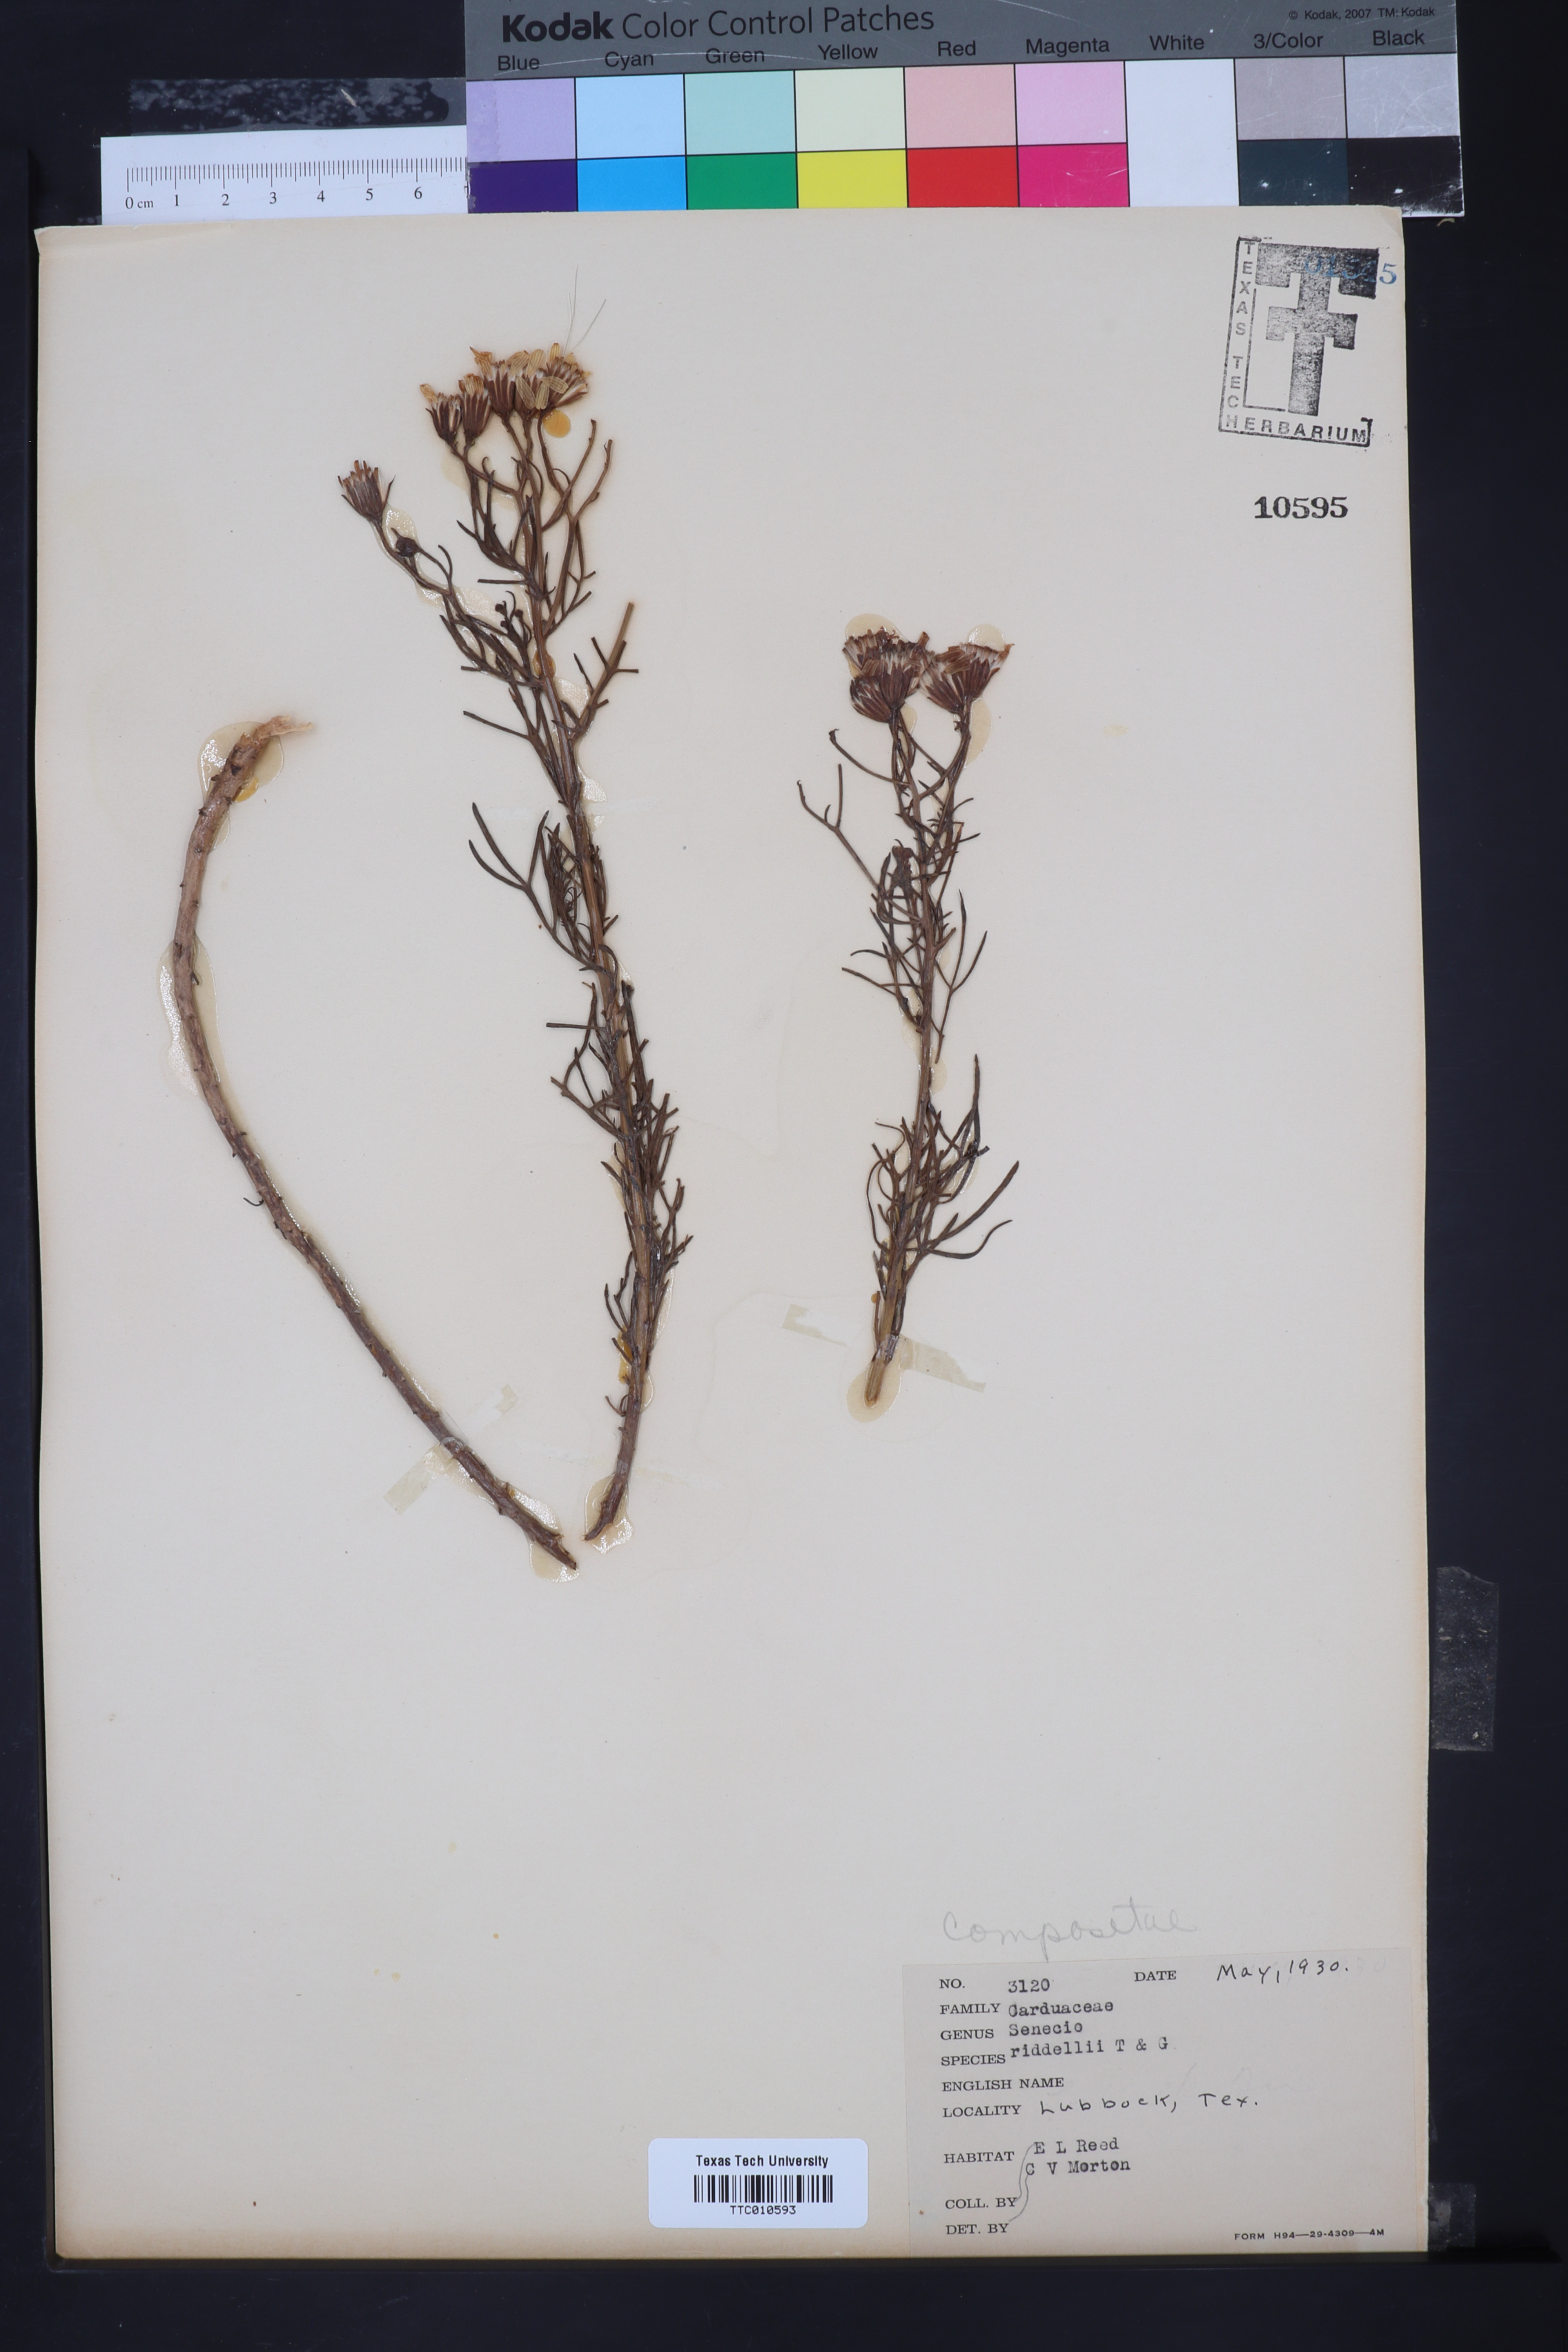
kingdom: Plantae
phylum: Tracheophyta
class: Magnoliopsida
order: Asterales
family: Asteraceae
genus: Senecio
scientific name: Senecio riddellii
